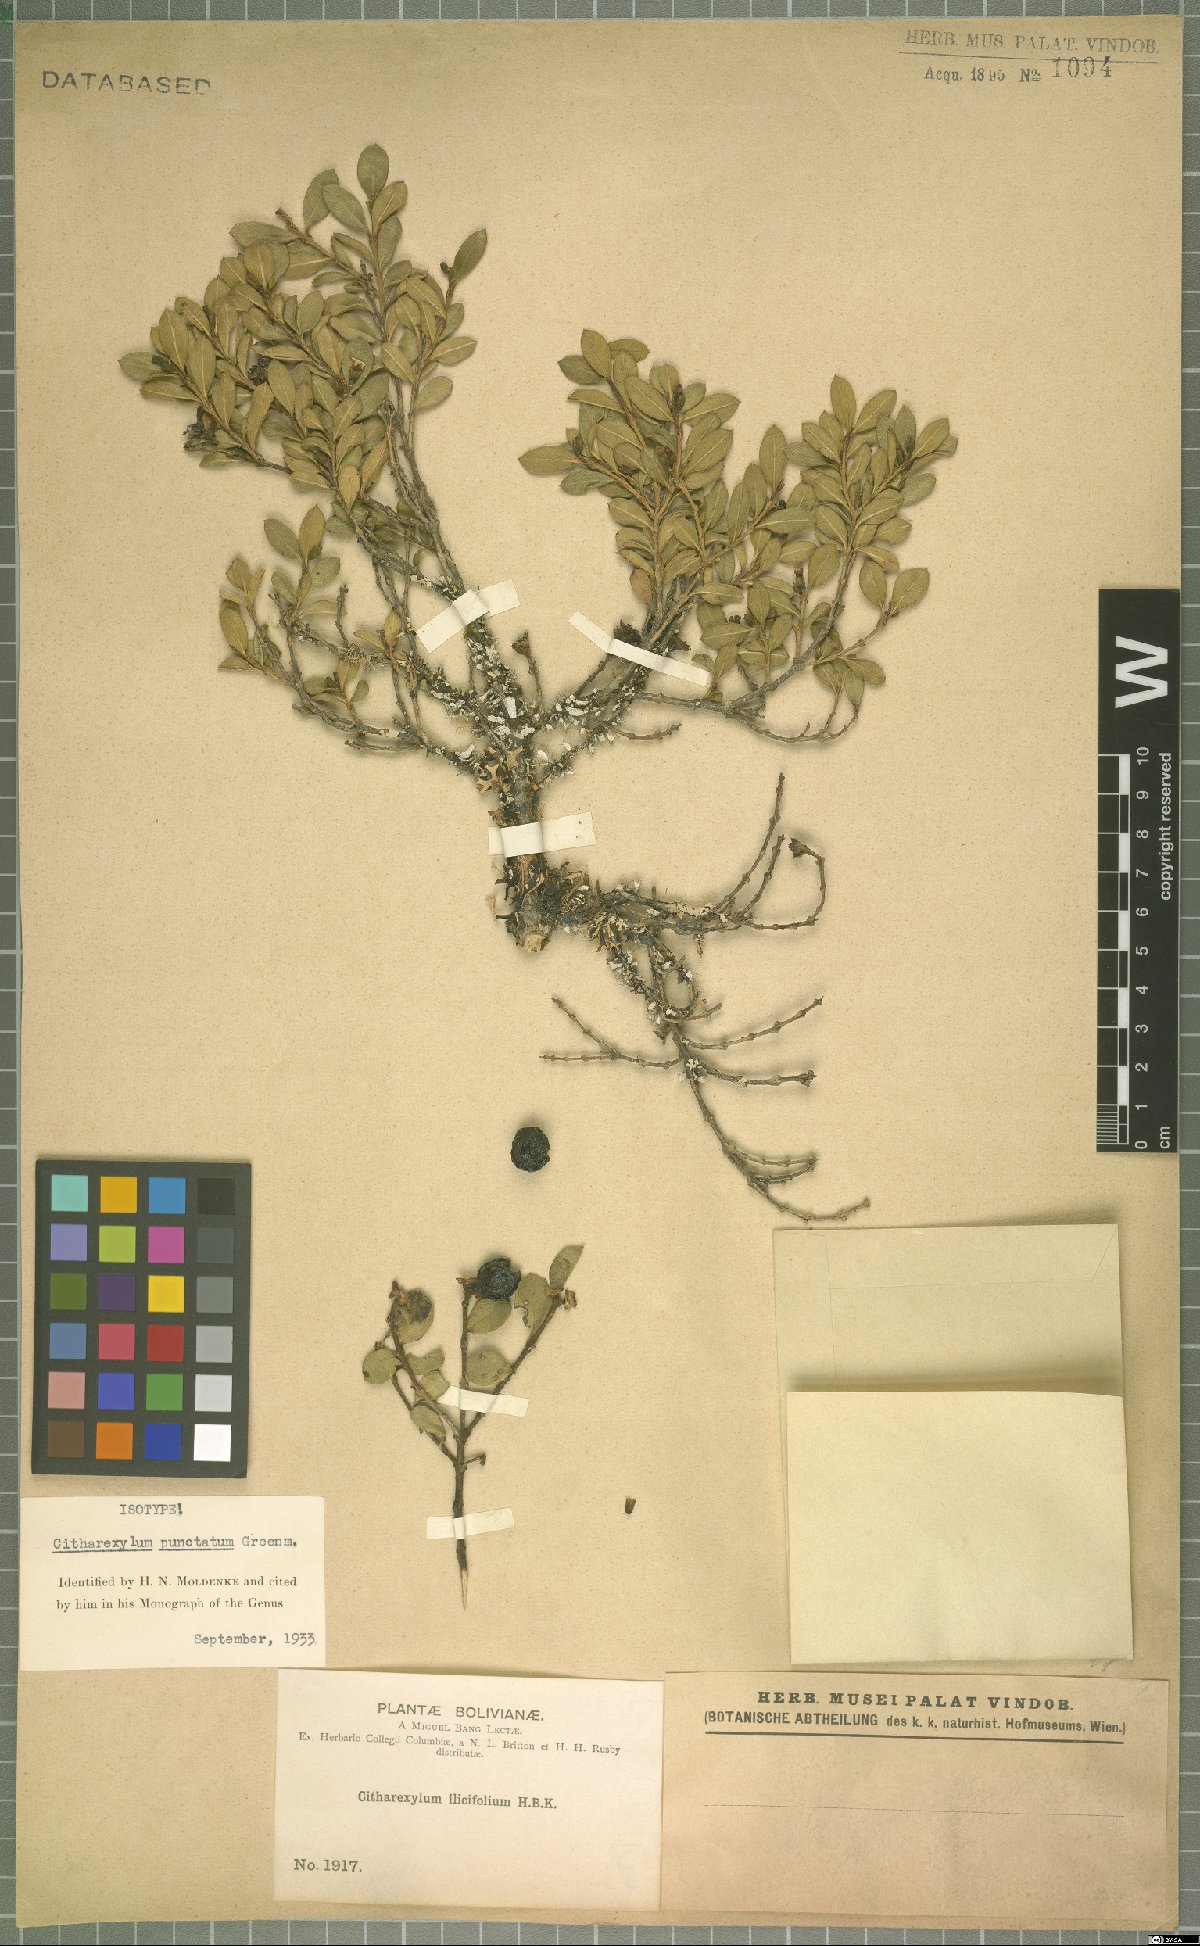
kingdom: Plantae
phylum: Tracheophyta
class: Magnoliopsida
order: Lamiales
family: Verbenaceae
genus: Citharexylum
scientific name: Citharexylum dentatum
